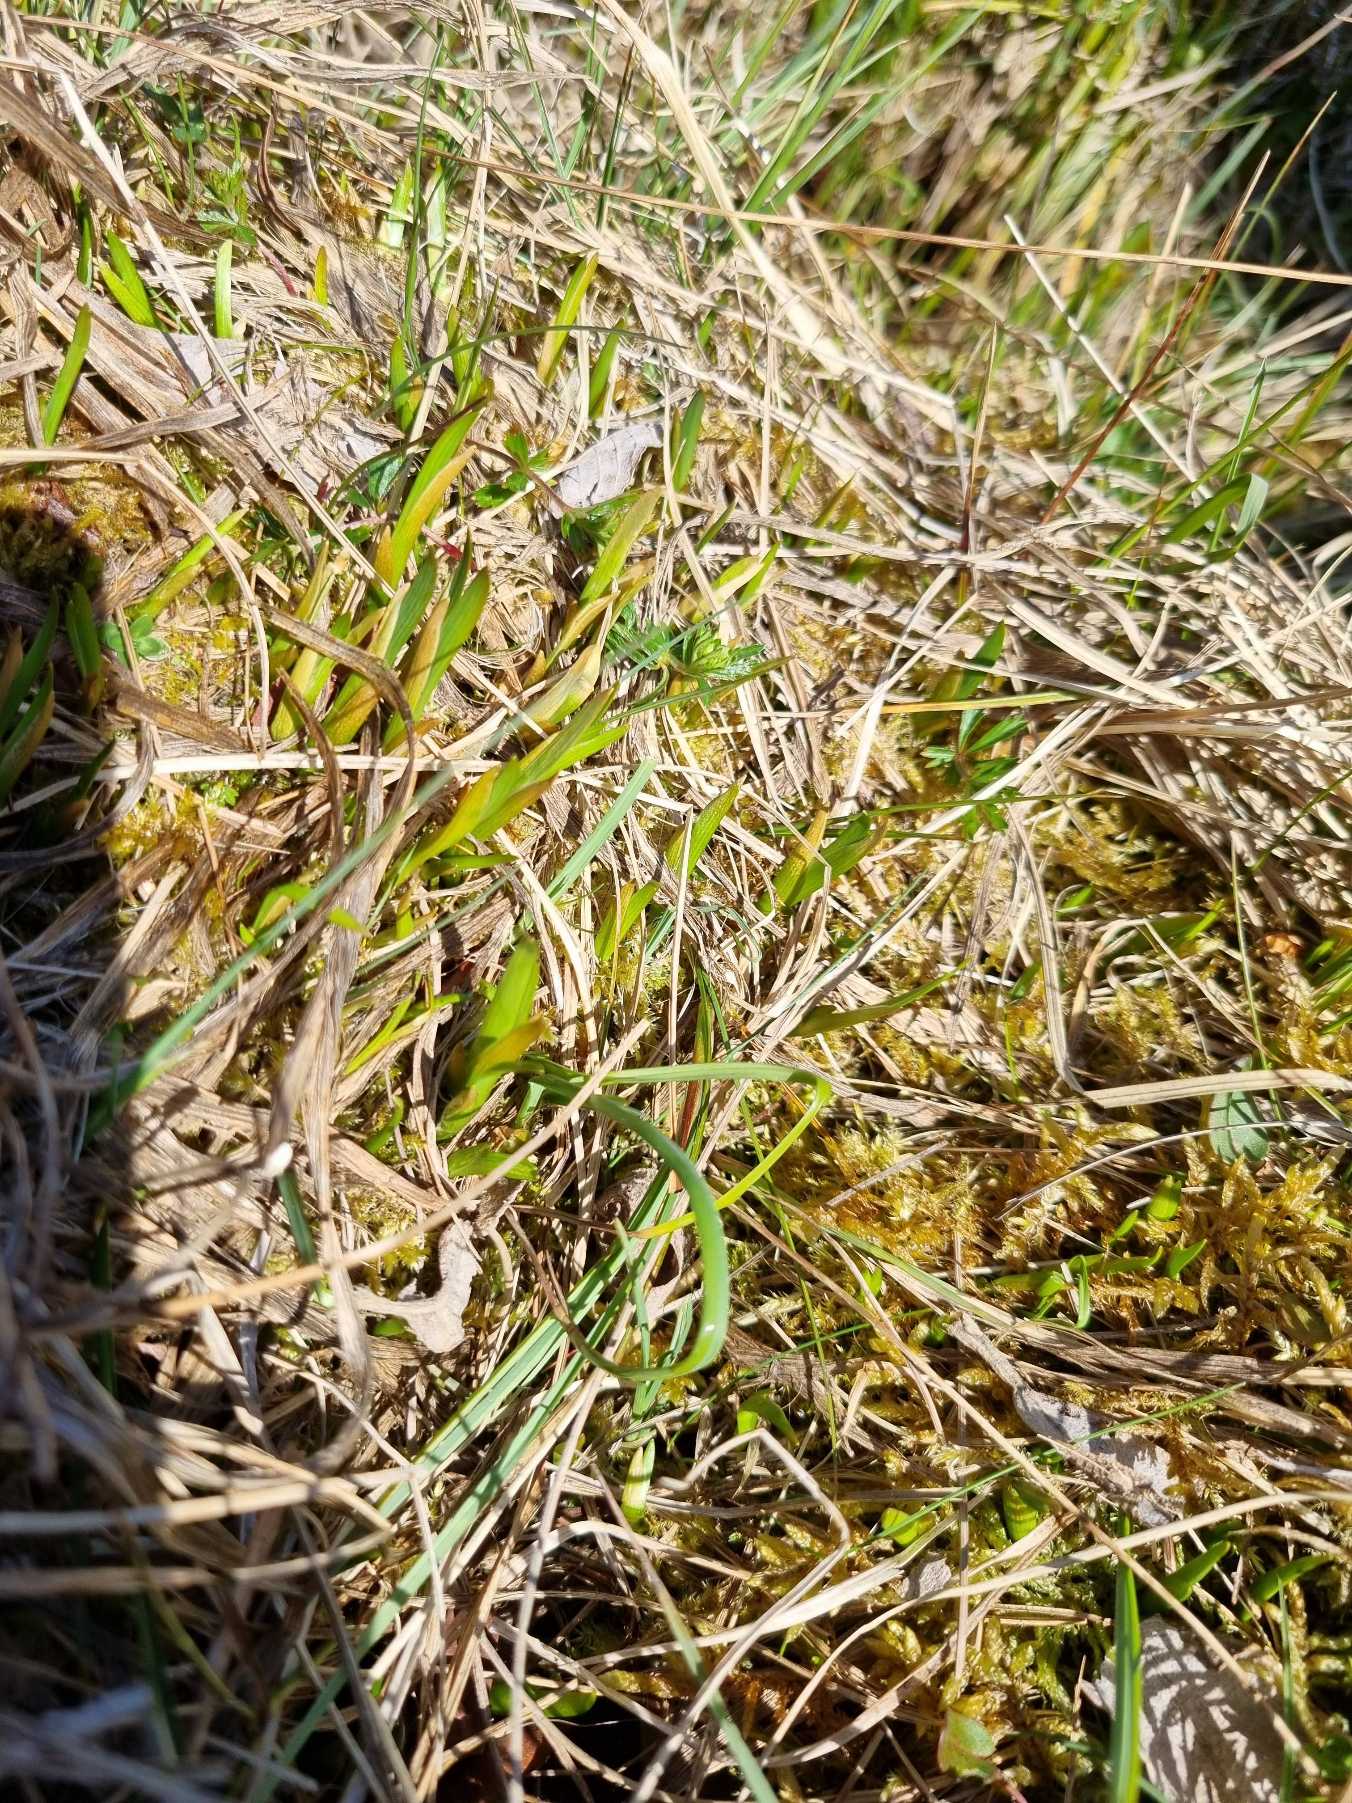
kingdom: Plantae
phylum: Tracheophyta
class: Liliopsida
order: Dioscoreales
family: Nartheciaceae
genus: Narthecium
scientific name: Narthecium ossifragum
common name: Benbræk
